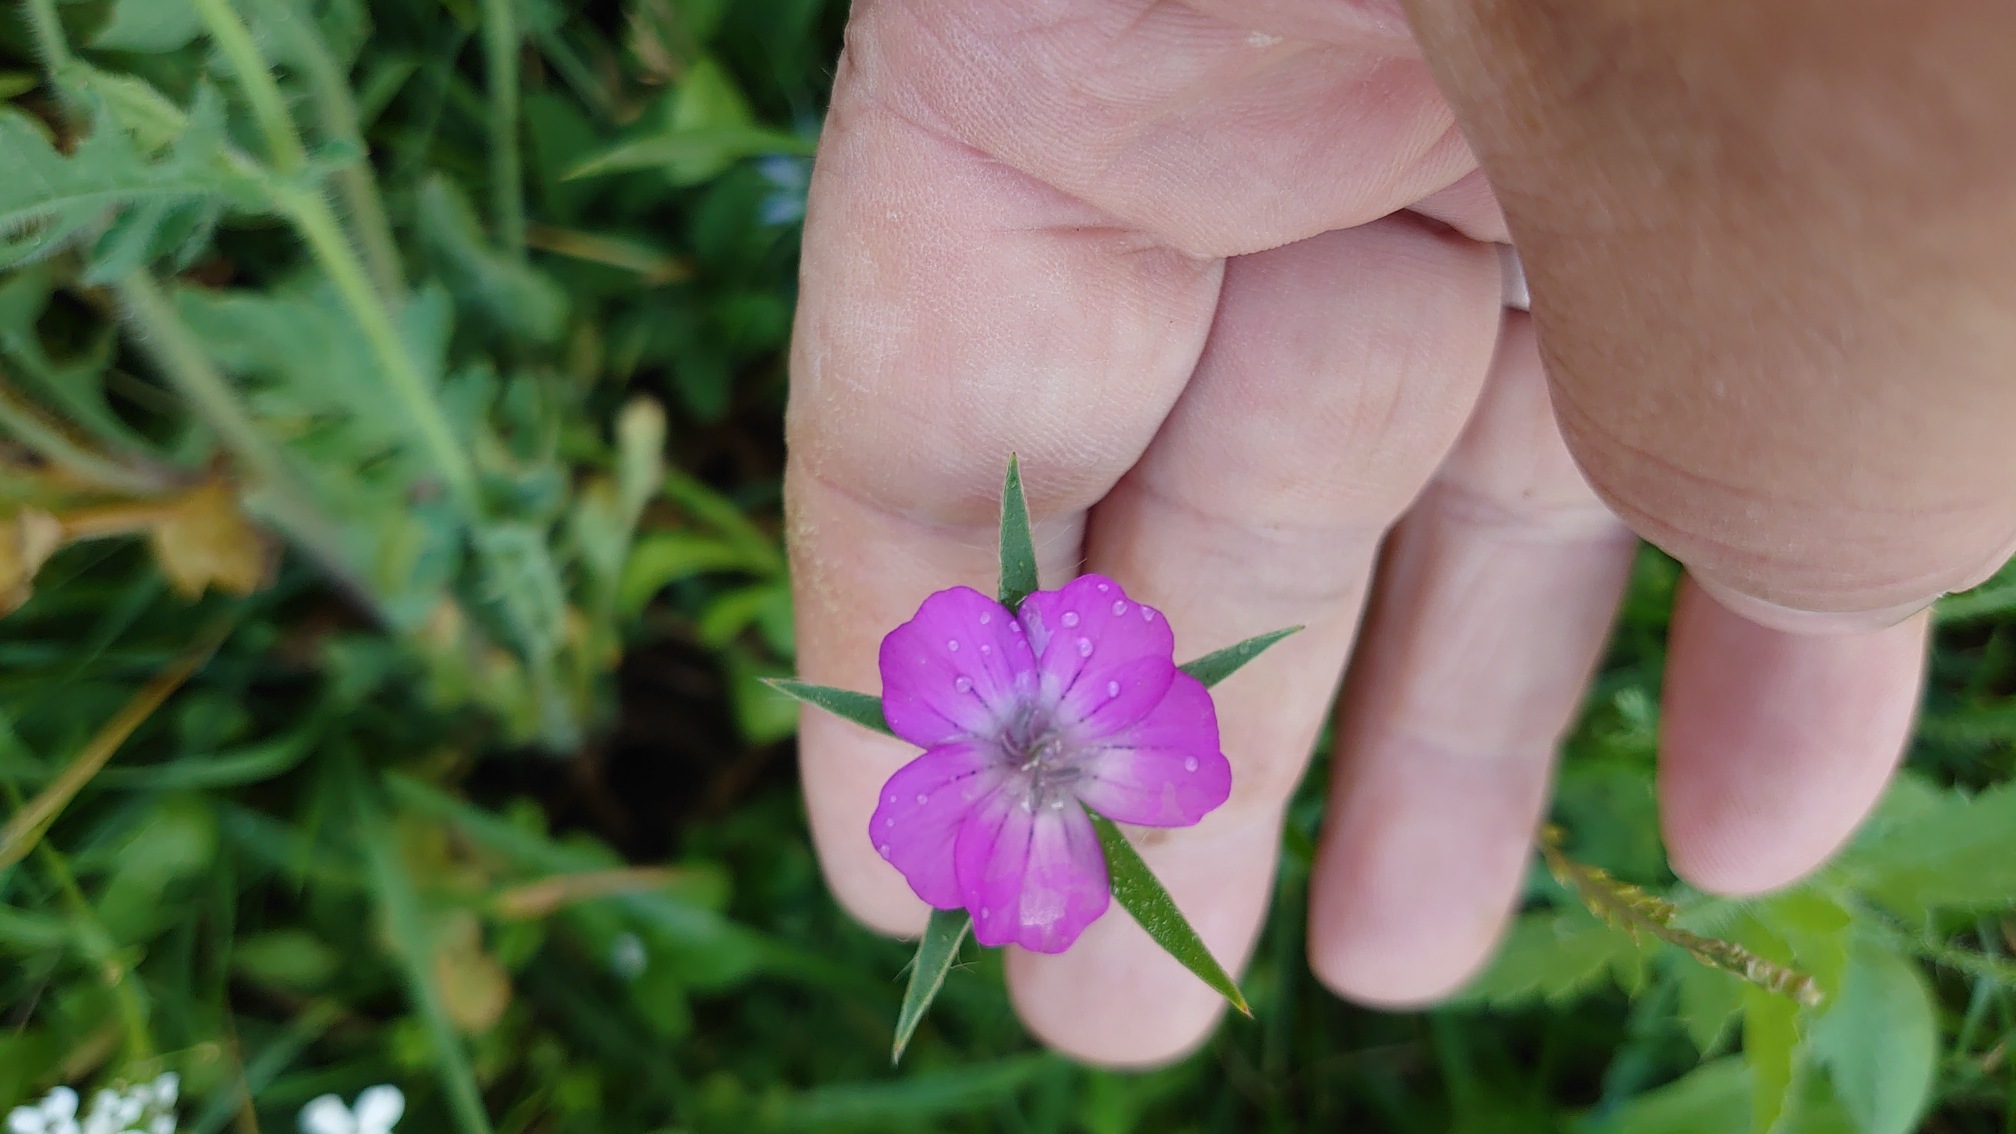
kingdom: Plantae
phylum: Tracheophyta
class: Magnoliopsida
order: Caryophyllales
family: Caryophyllaceae
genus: Agrostemma
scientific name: Agrostemma githago
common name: Klinte
